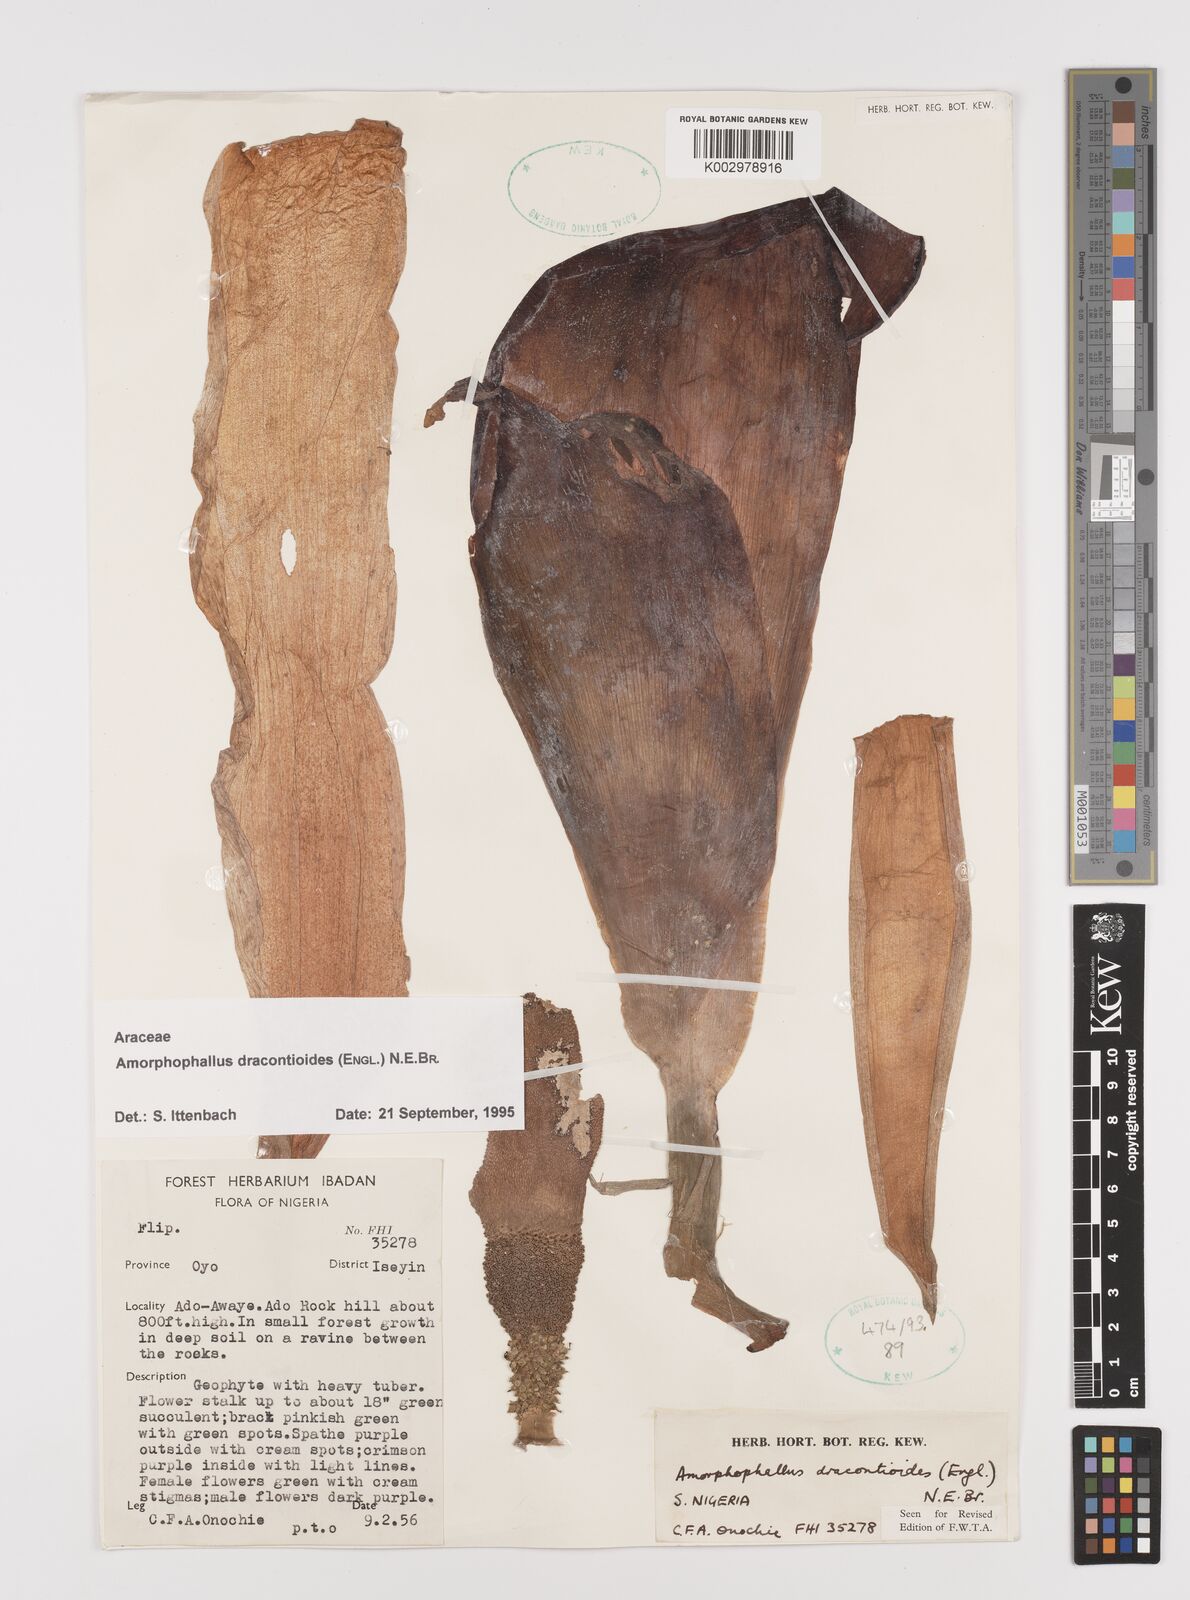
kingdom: Plantae
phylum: Tracheophyta
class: Liliopsida
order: Alismatales
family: Araceae
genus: Amorphophallus
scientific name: Amorphophallus dracontioides
